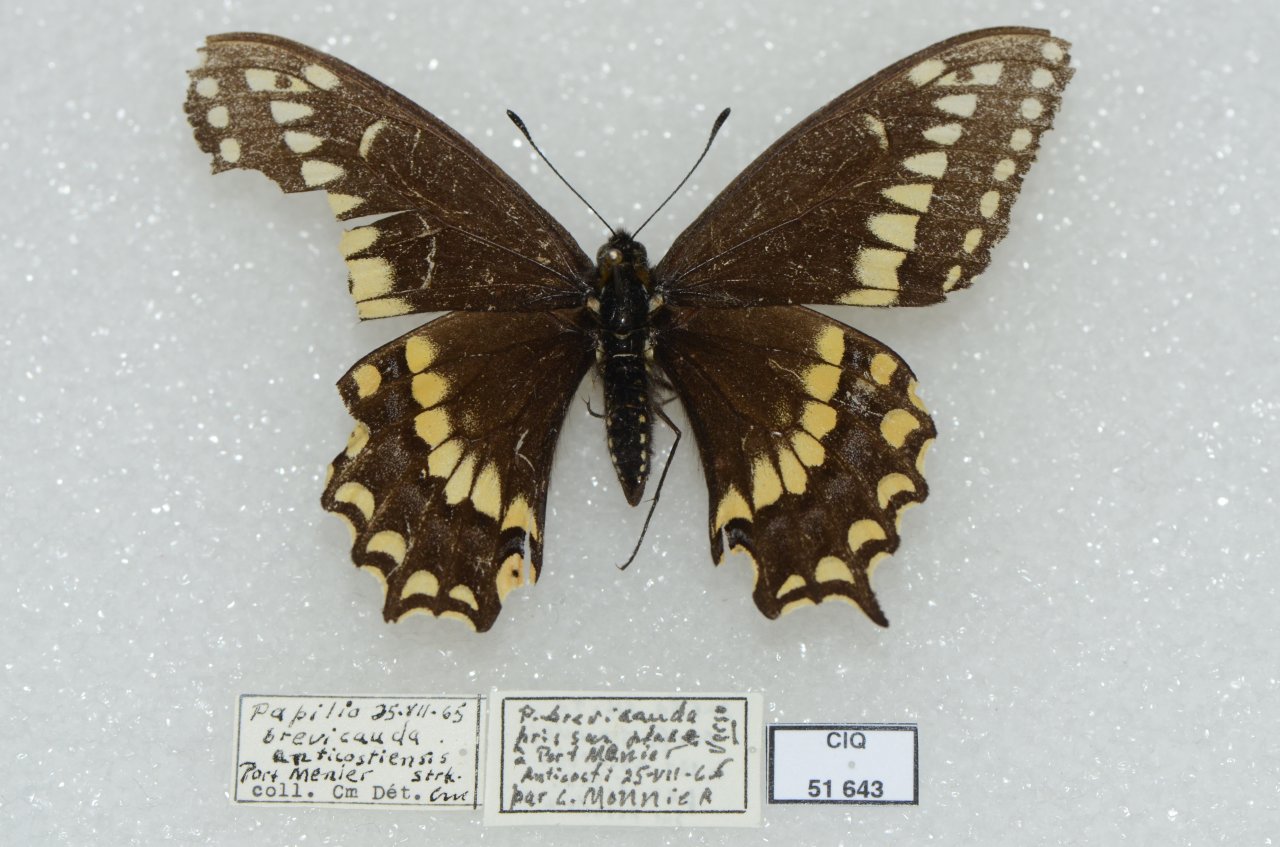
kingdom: Animalia
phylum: Arthropoda
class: Insecta
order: Lepidoptera
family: Papilionidae
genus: Papilio
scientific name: Papilio brevicauda
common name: Short-tailed Swallowtail
